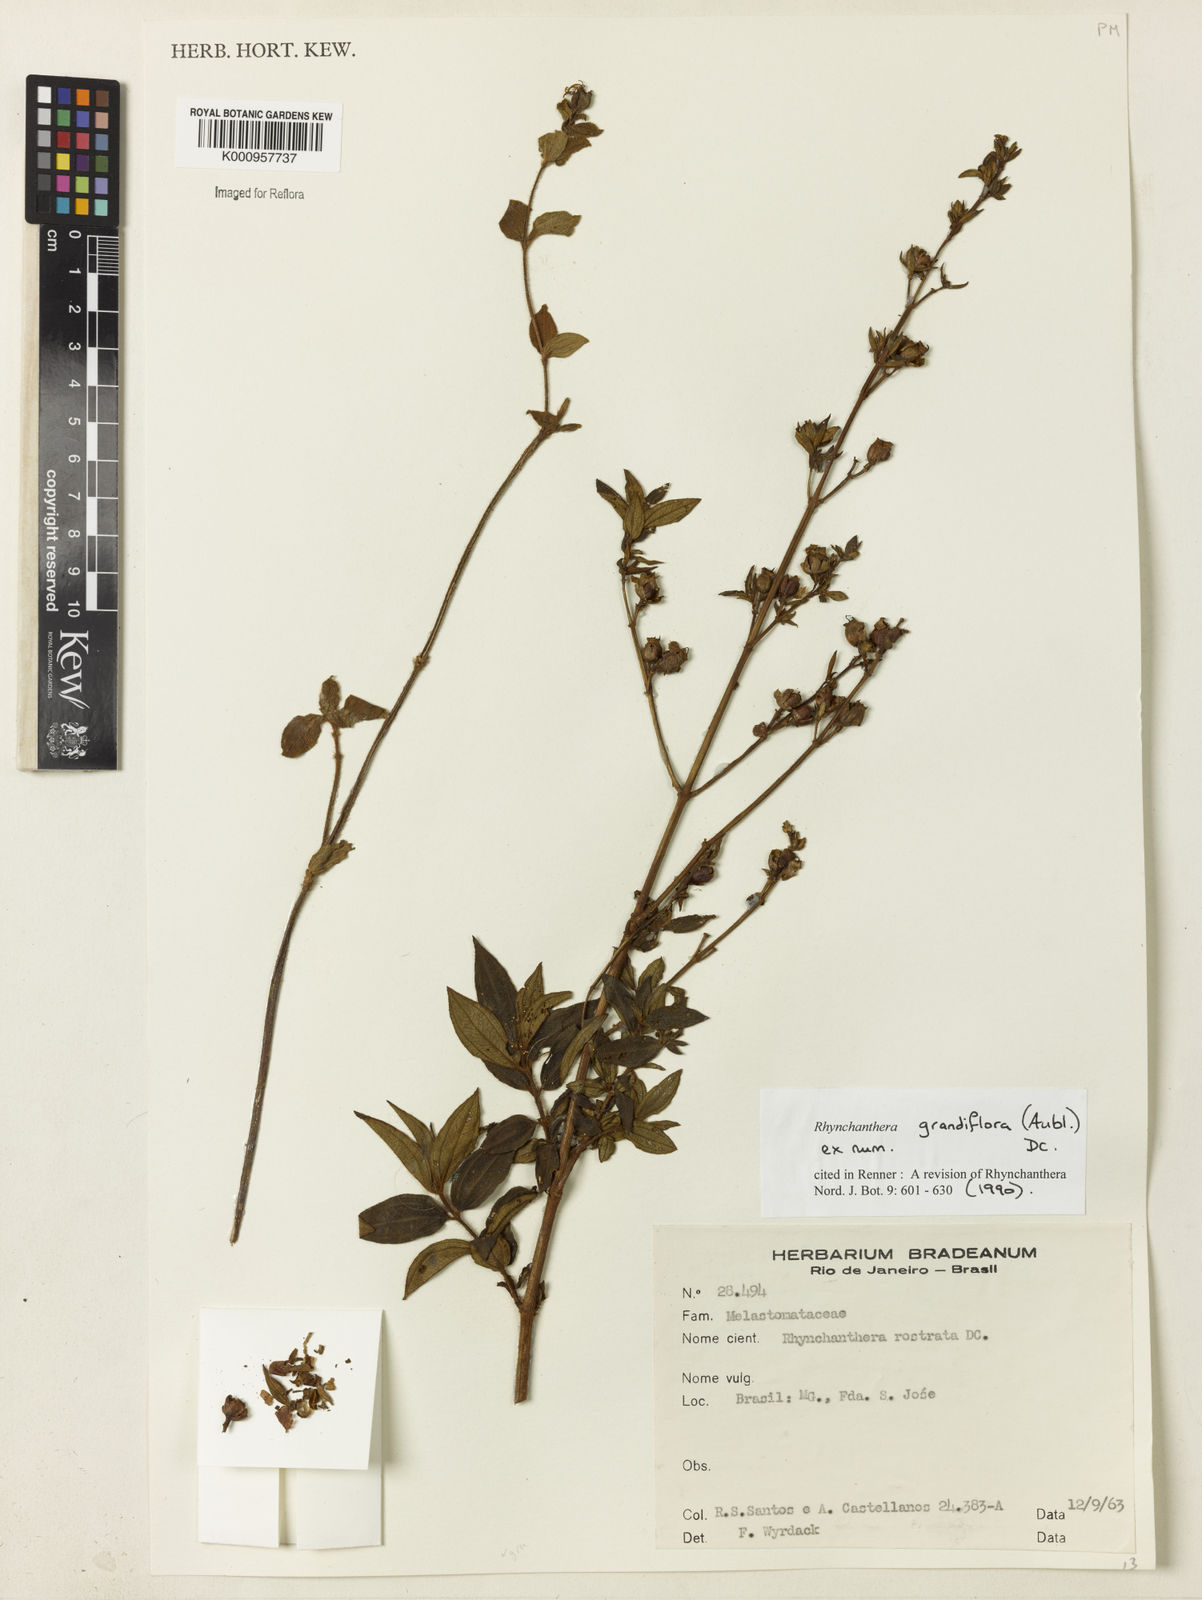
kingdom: Plantae
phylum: Tracheophyta
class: Magnoliopsida
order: Myrtales
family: Melastomataceae
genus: Rhynchanthera
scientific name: Rhynchanthera grandiflora
